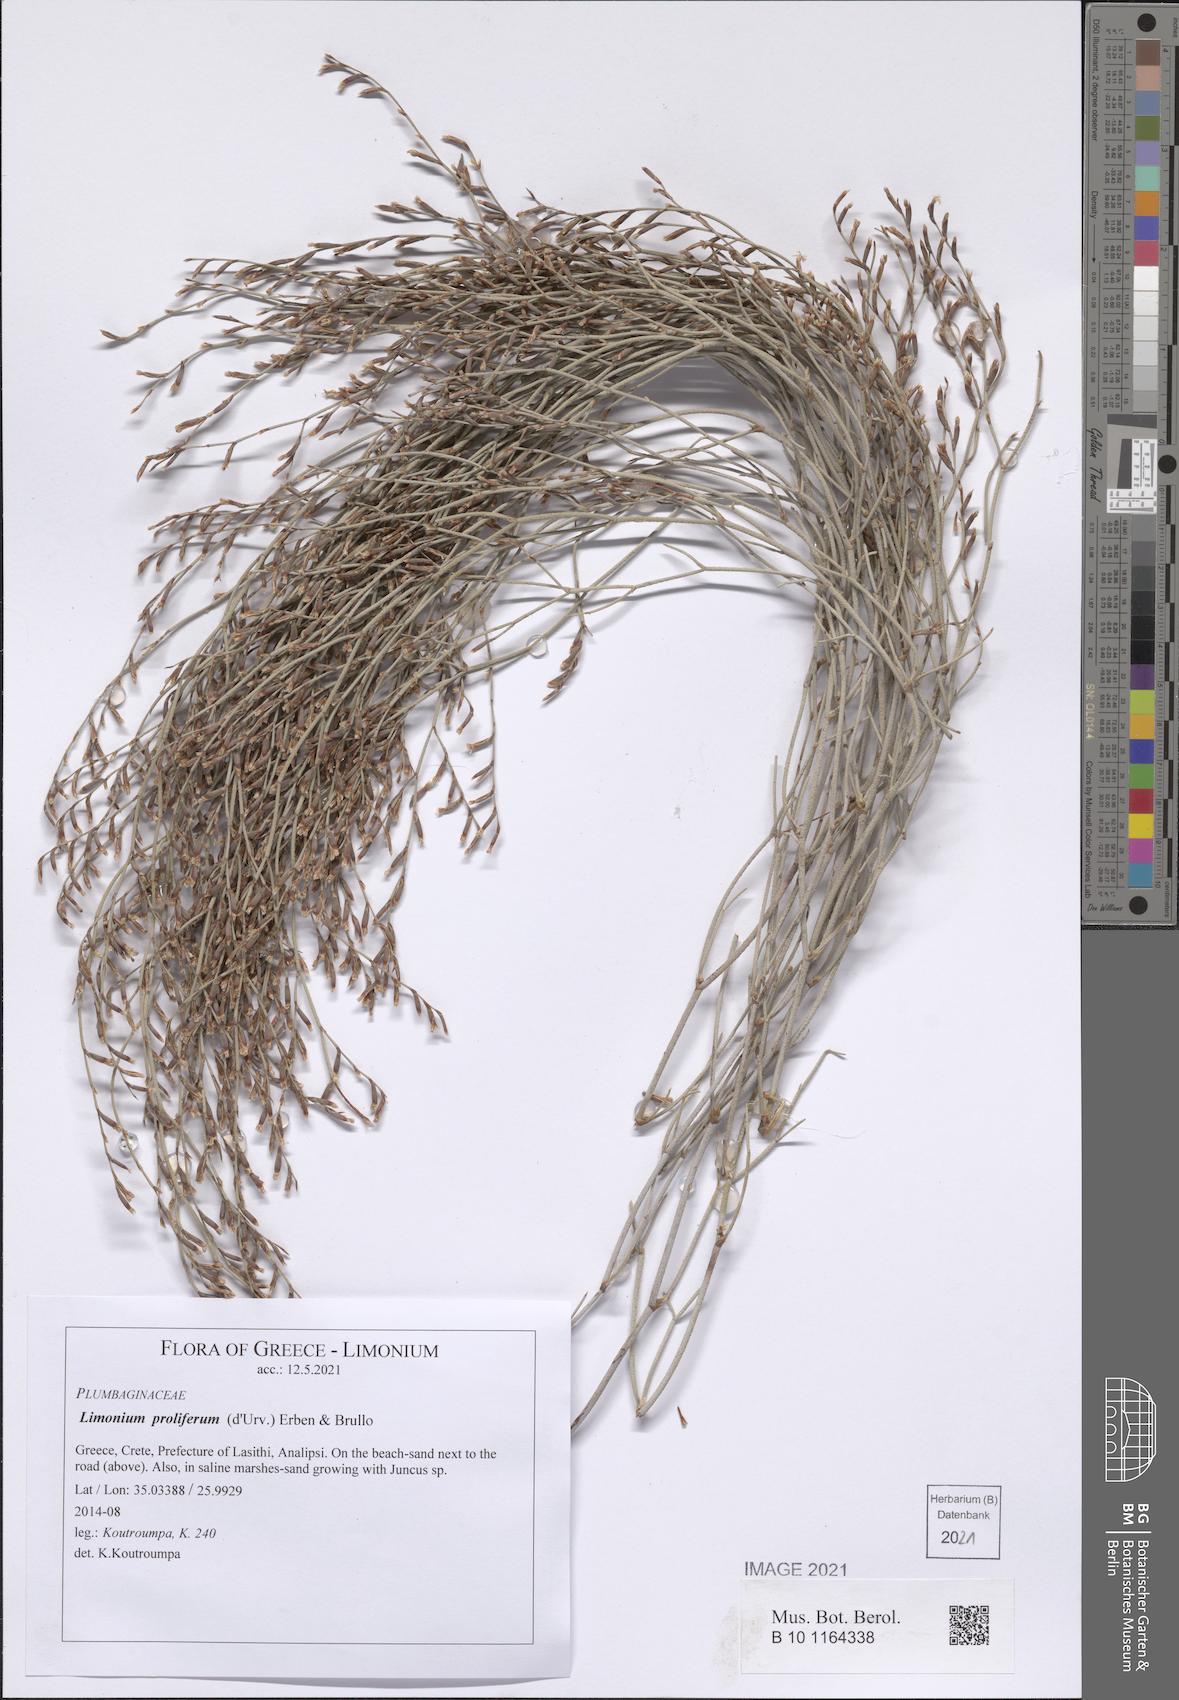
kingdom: Plantae
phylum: Tracheophyta
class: Magnoliopsida
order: Caryophyllales
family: Plumbaginaceae
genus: Limonium
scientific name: Limonium proliferum
